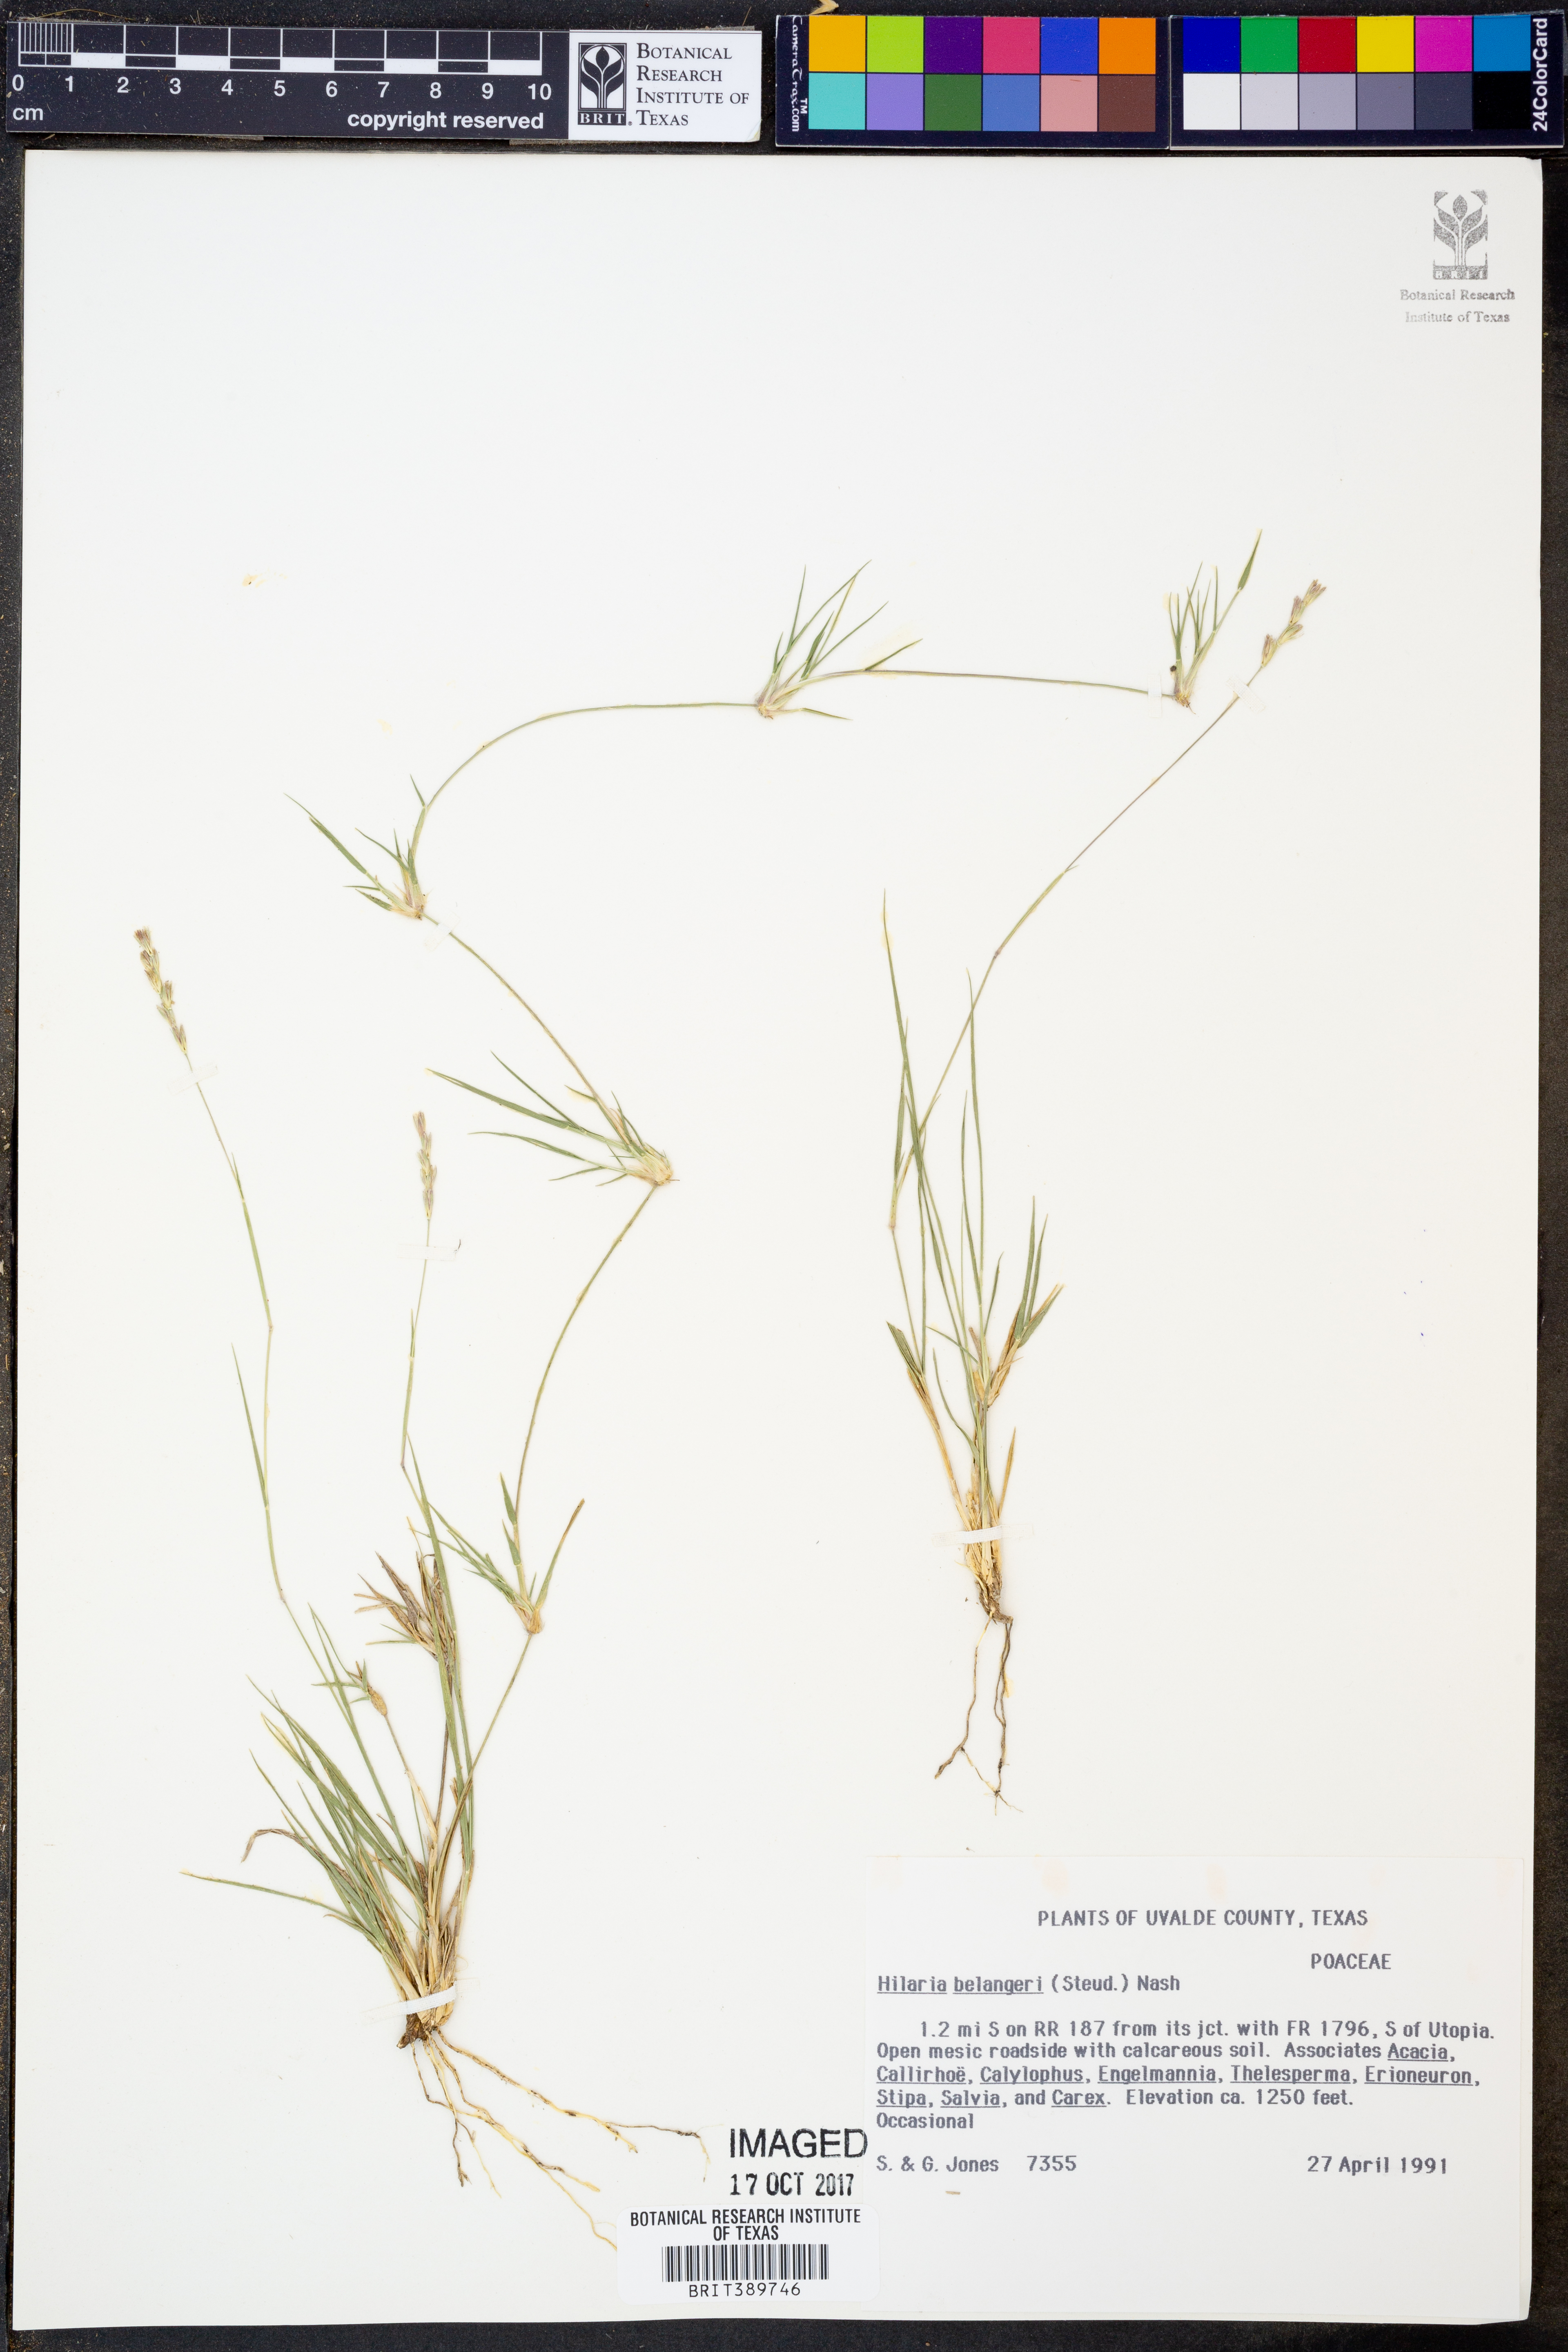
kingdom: Plantae
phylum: Tracheophyta
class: Liliopsida
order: Poales
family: Poaceae
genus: Hilaria
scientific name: Hilaria belangeri
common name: Curly-mesquite
